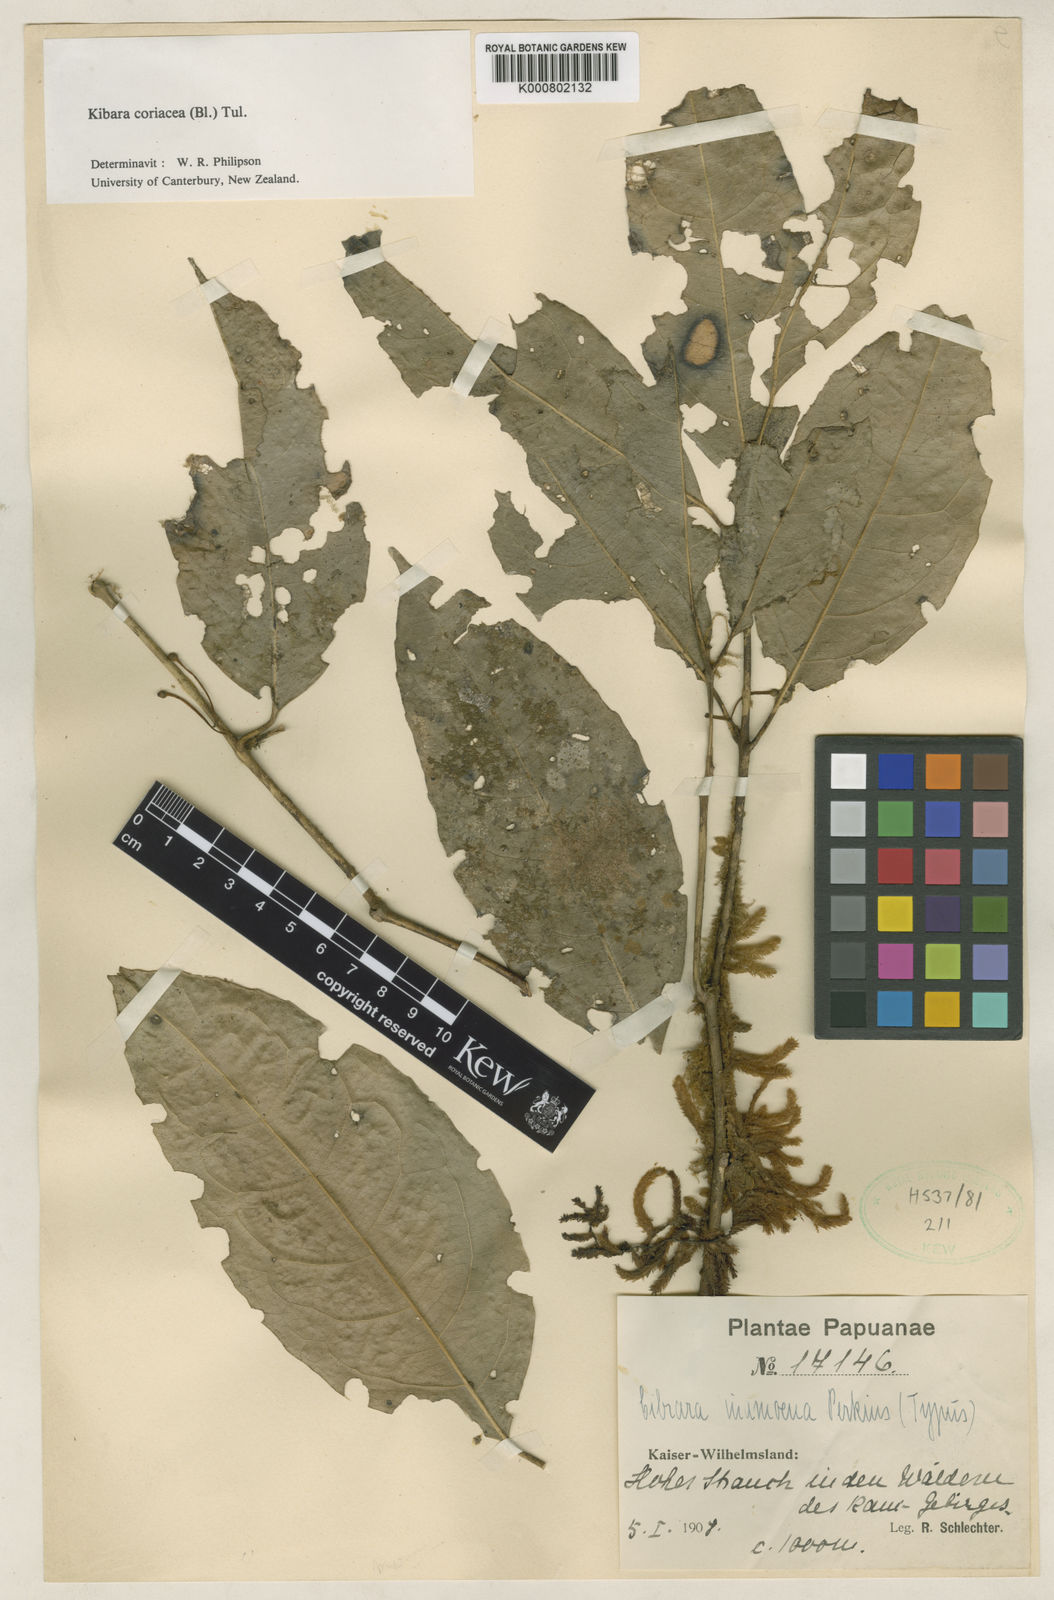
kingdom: Plantae
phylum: Tracheophyta
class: Magnoliopsida
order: Laurales
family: Monimiaceae
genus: Kibara
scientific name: Kibara coriacea
